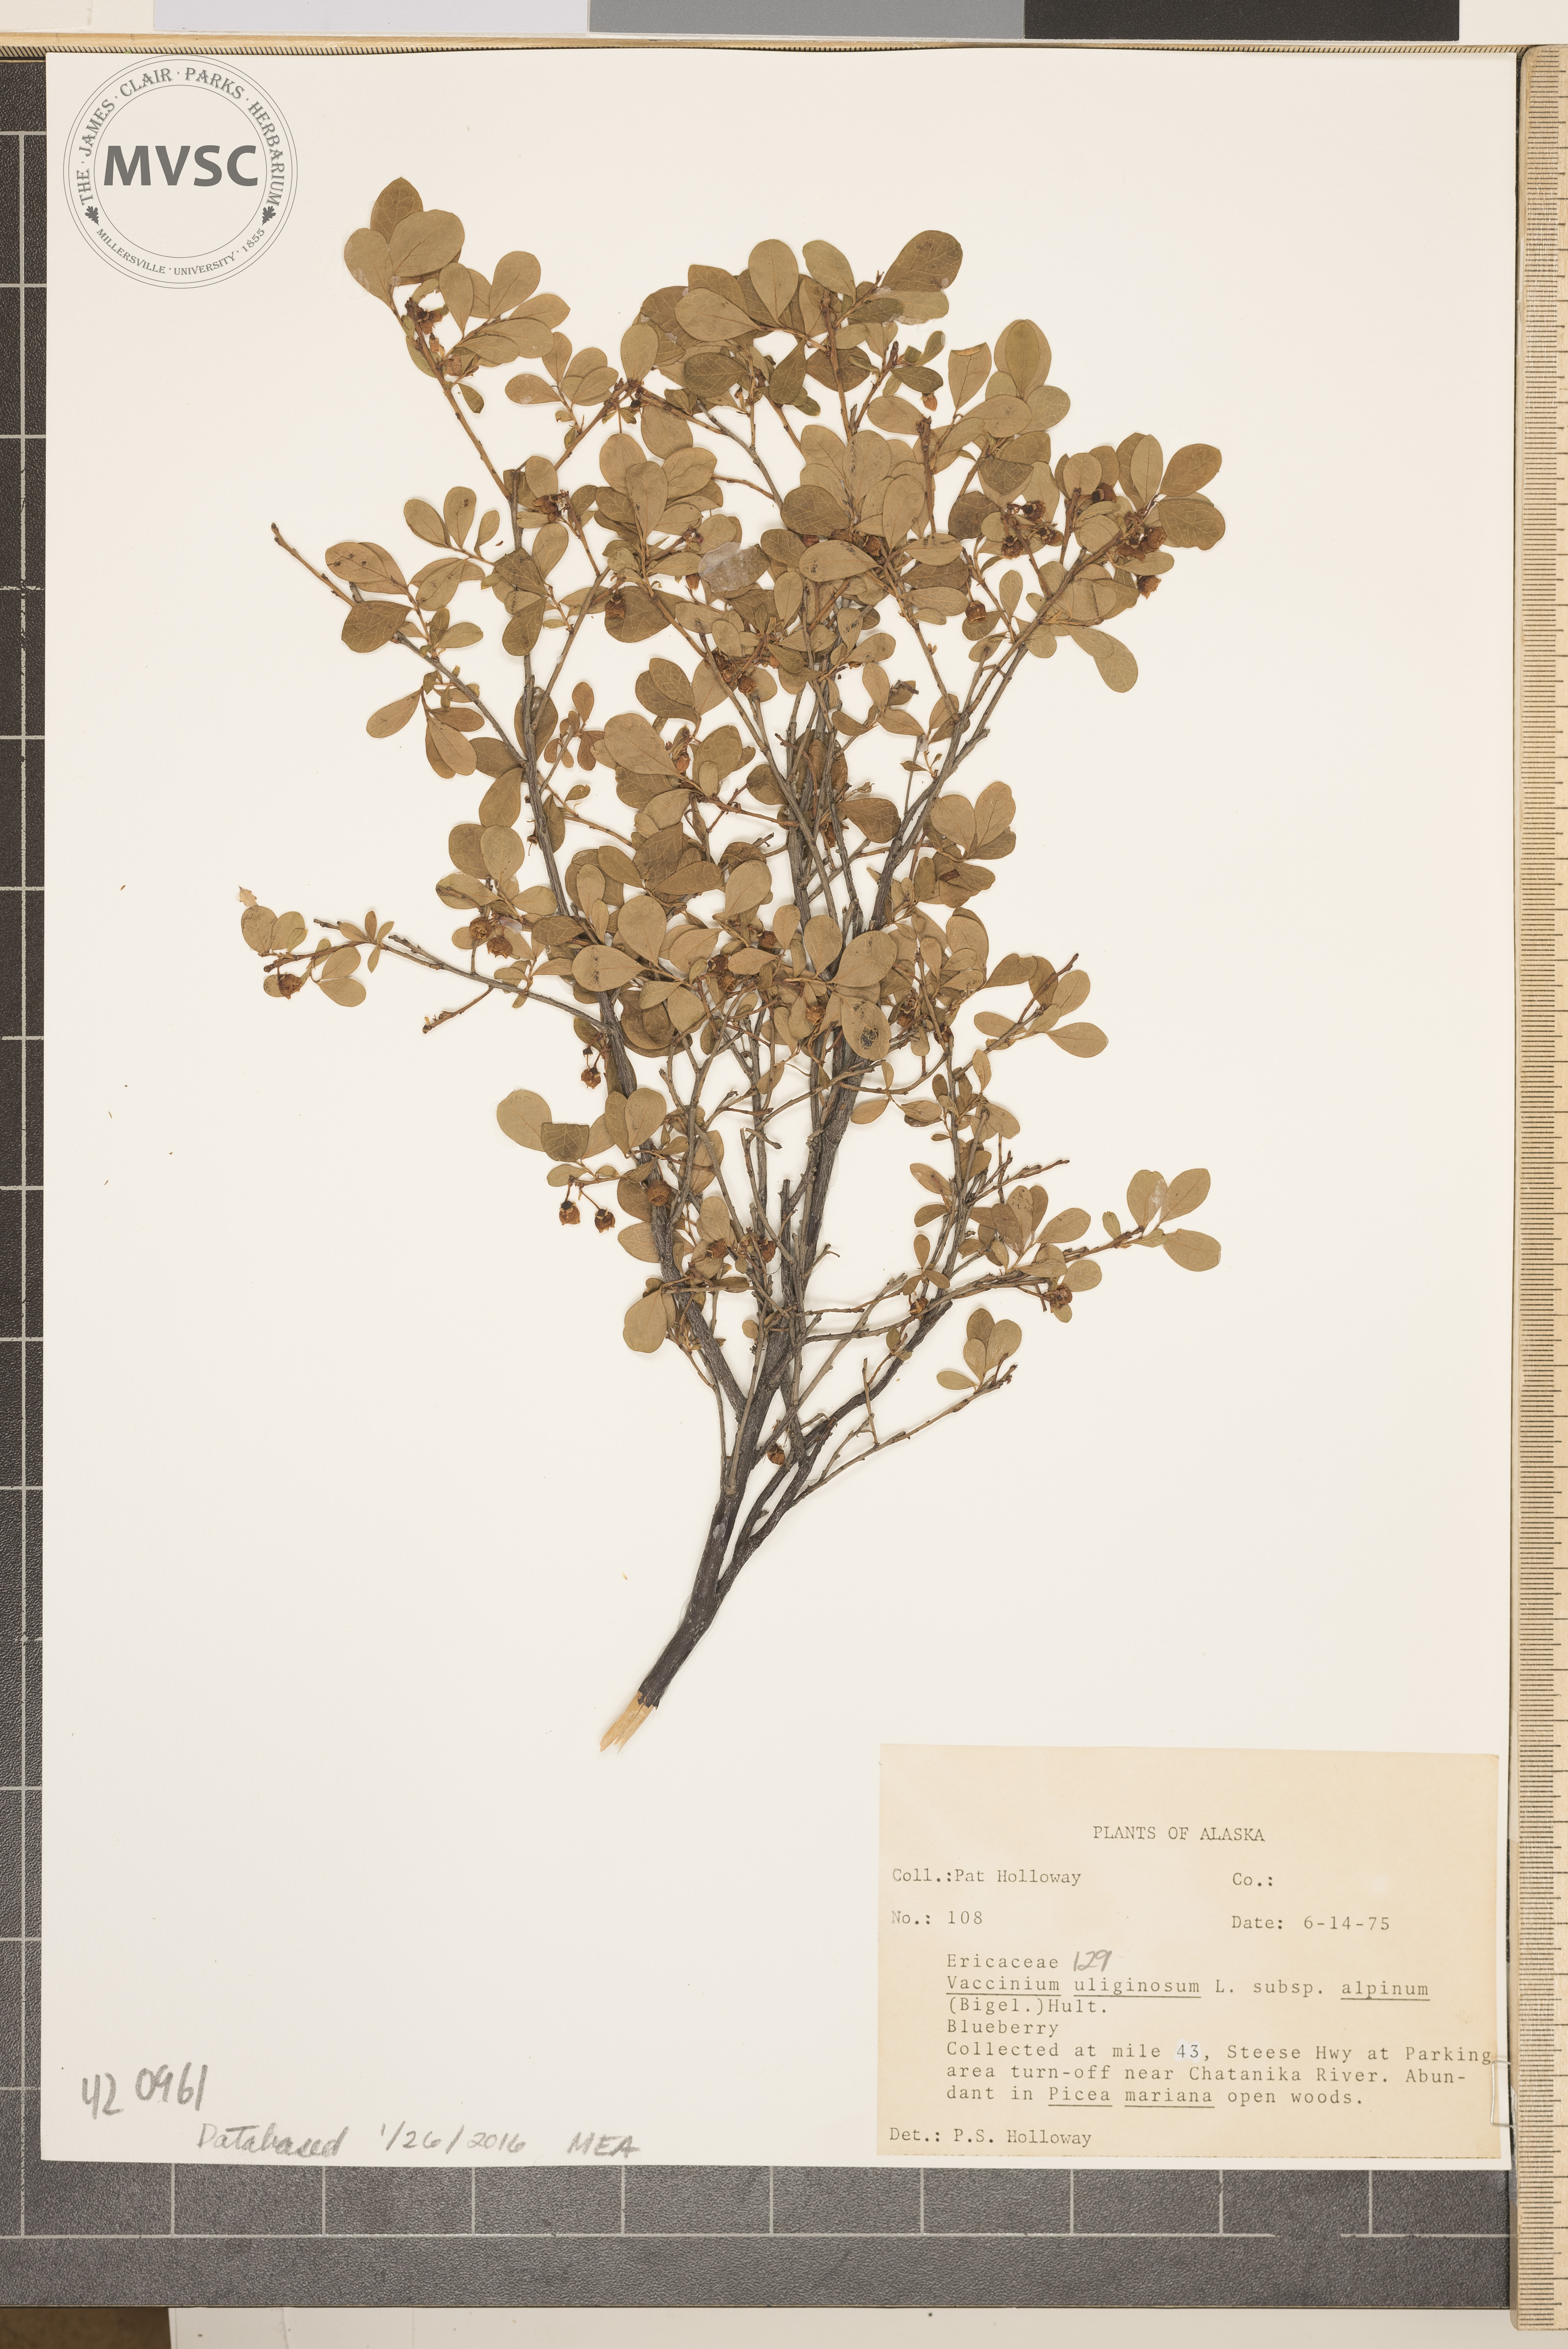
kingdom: Plantae
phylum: Tracheophyta
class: Magnoliopsida
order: Ericales
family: Ericaceae
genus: Vaccinium
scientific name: Vaccinium uliginosum
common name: Blueberry
